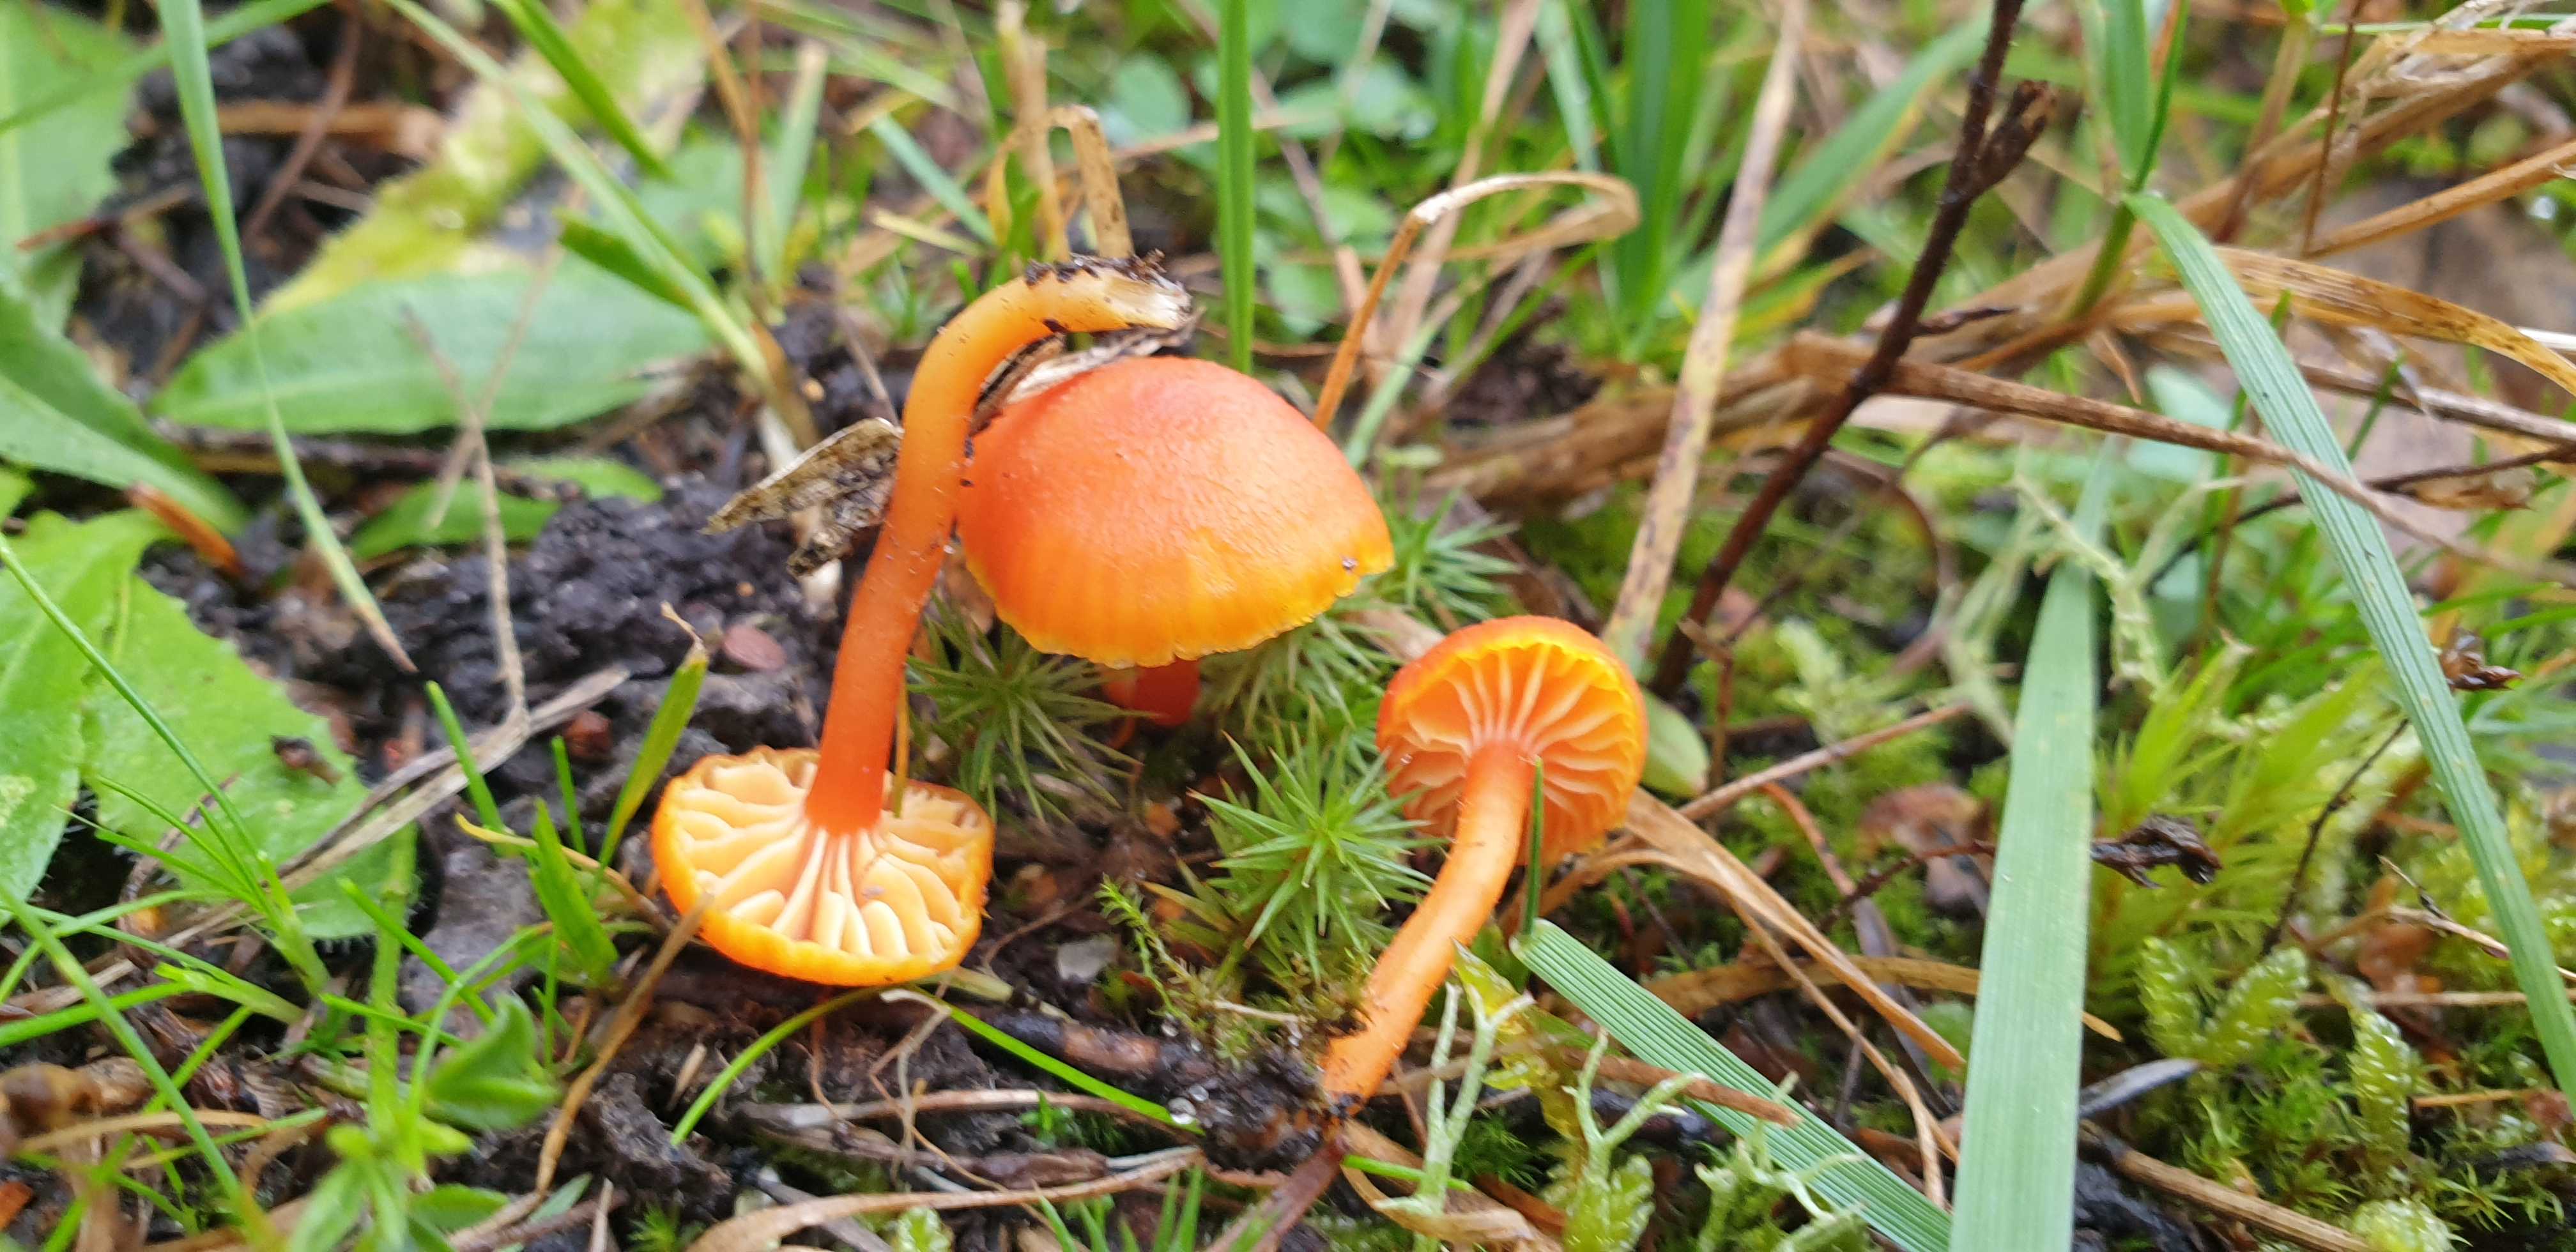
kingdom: Fungi
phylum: Basidiomycota
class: Agaricomycetes
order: Agaricales
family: Hygrophoraceae
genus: Hygrocybe
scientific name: Hygrocybe miniata
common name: mønje-vokshat
